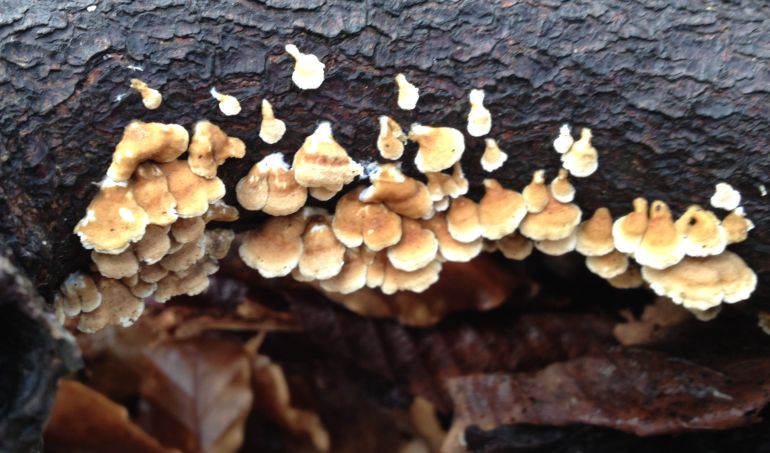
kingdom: Fungi
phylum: Basidiomycota
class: Agaricomycetes
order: Amylocorticiales
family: Amylocorticiaceae
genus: Plicaturopsis
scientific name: Plicaturopsis crispa
